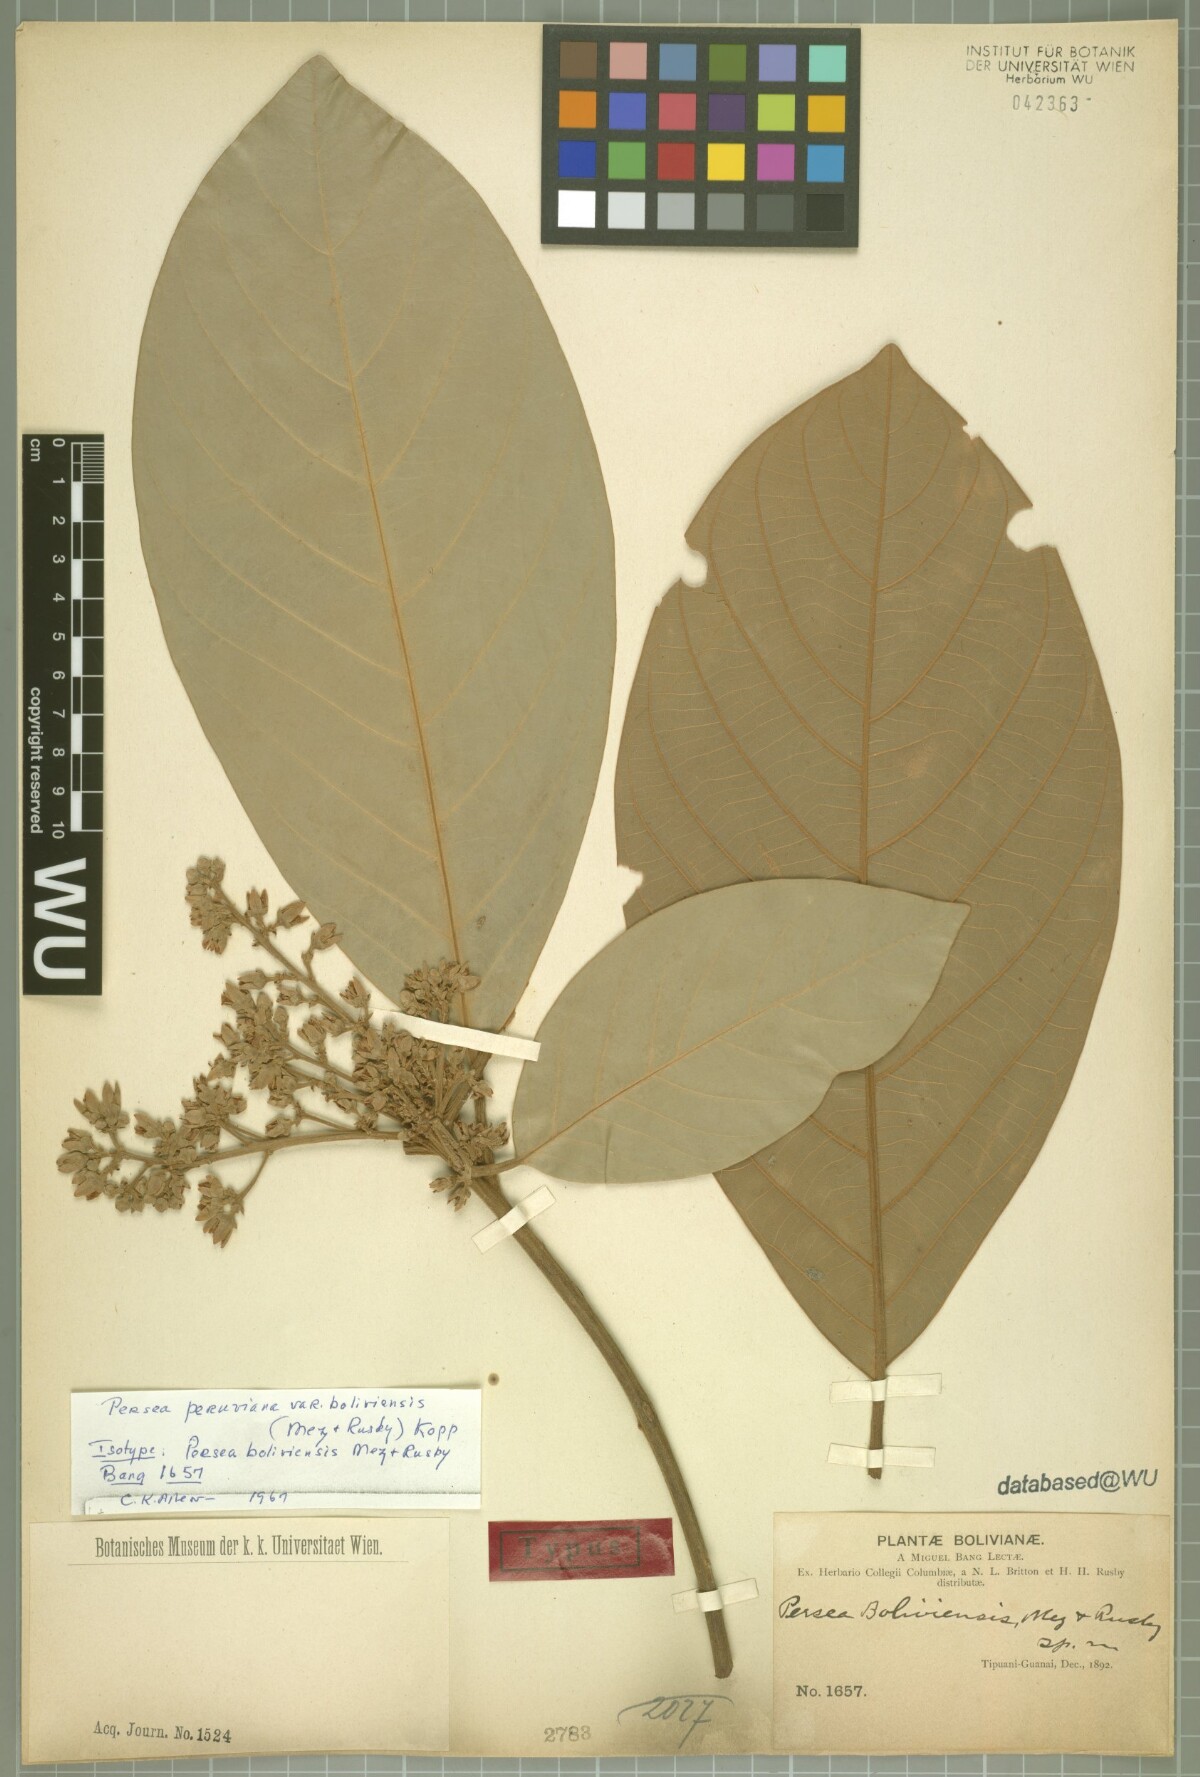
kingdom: Plantae
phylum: Tracheophyta
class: Magnoliopsida
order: Laurales
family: Lauraceae
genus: Persea
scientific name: Persea peruviana
